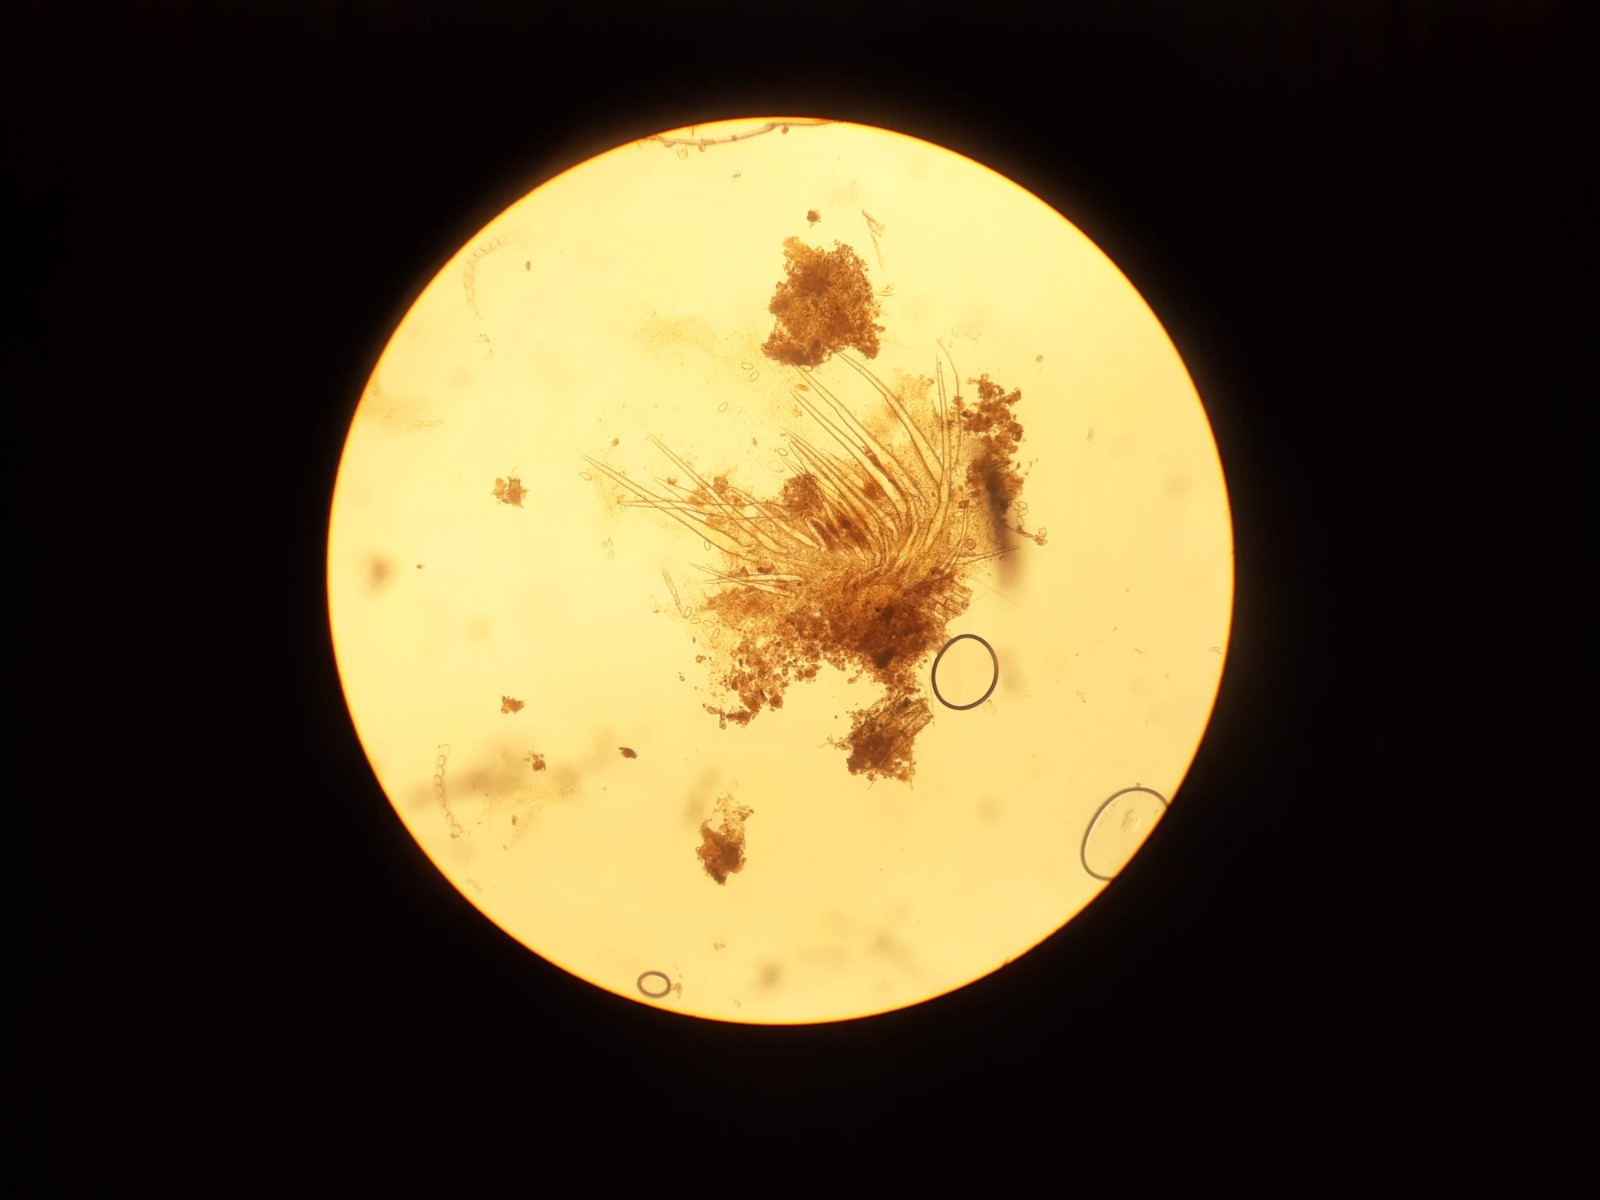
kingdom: Fungi
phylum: Ascomycota
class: Pezizomycetes
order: Pezizales
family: Ascodesmidaceae
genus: Lasiobolus
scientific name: Lasiobolus papillatus
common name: enradet øjebæger
